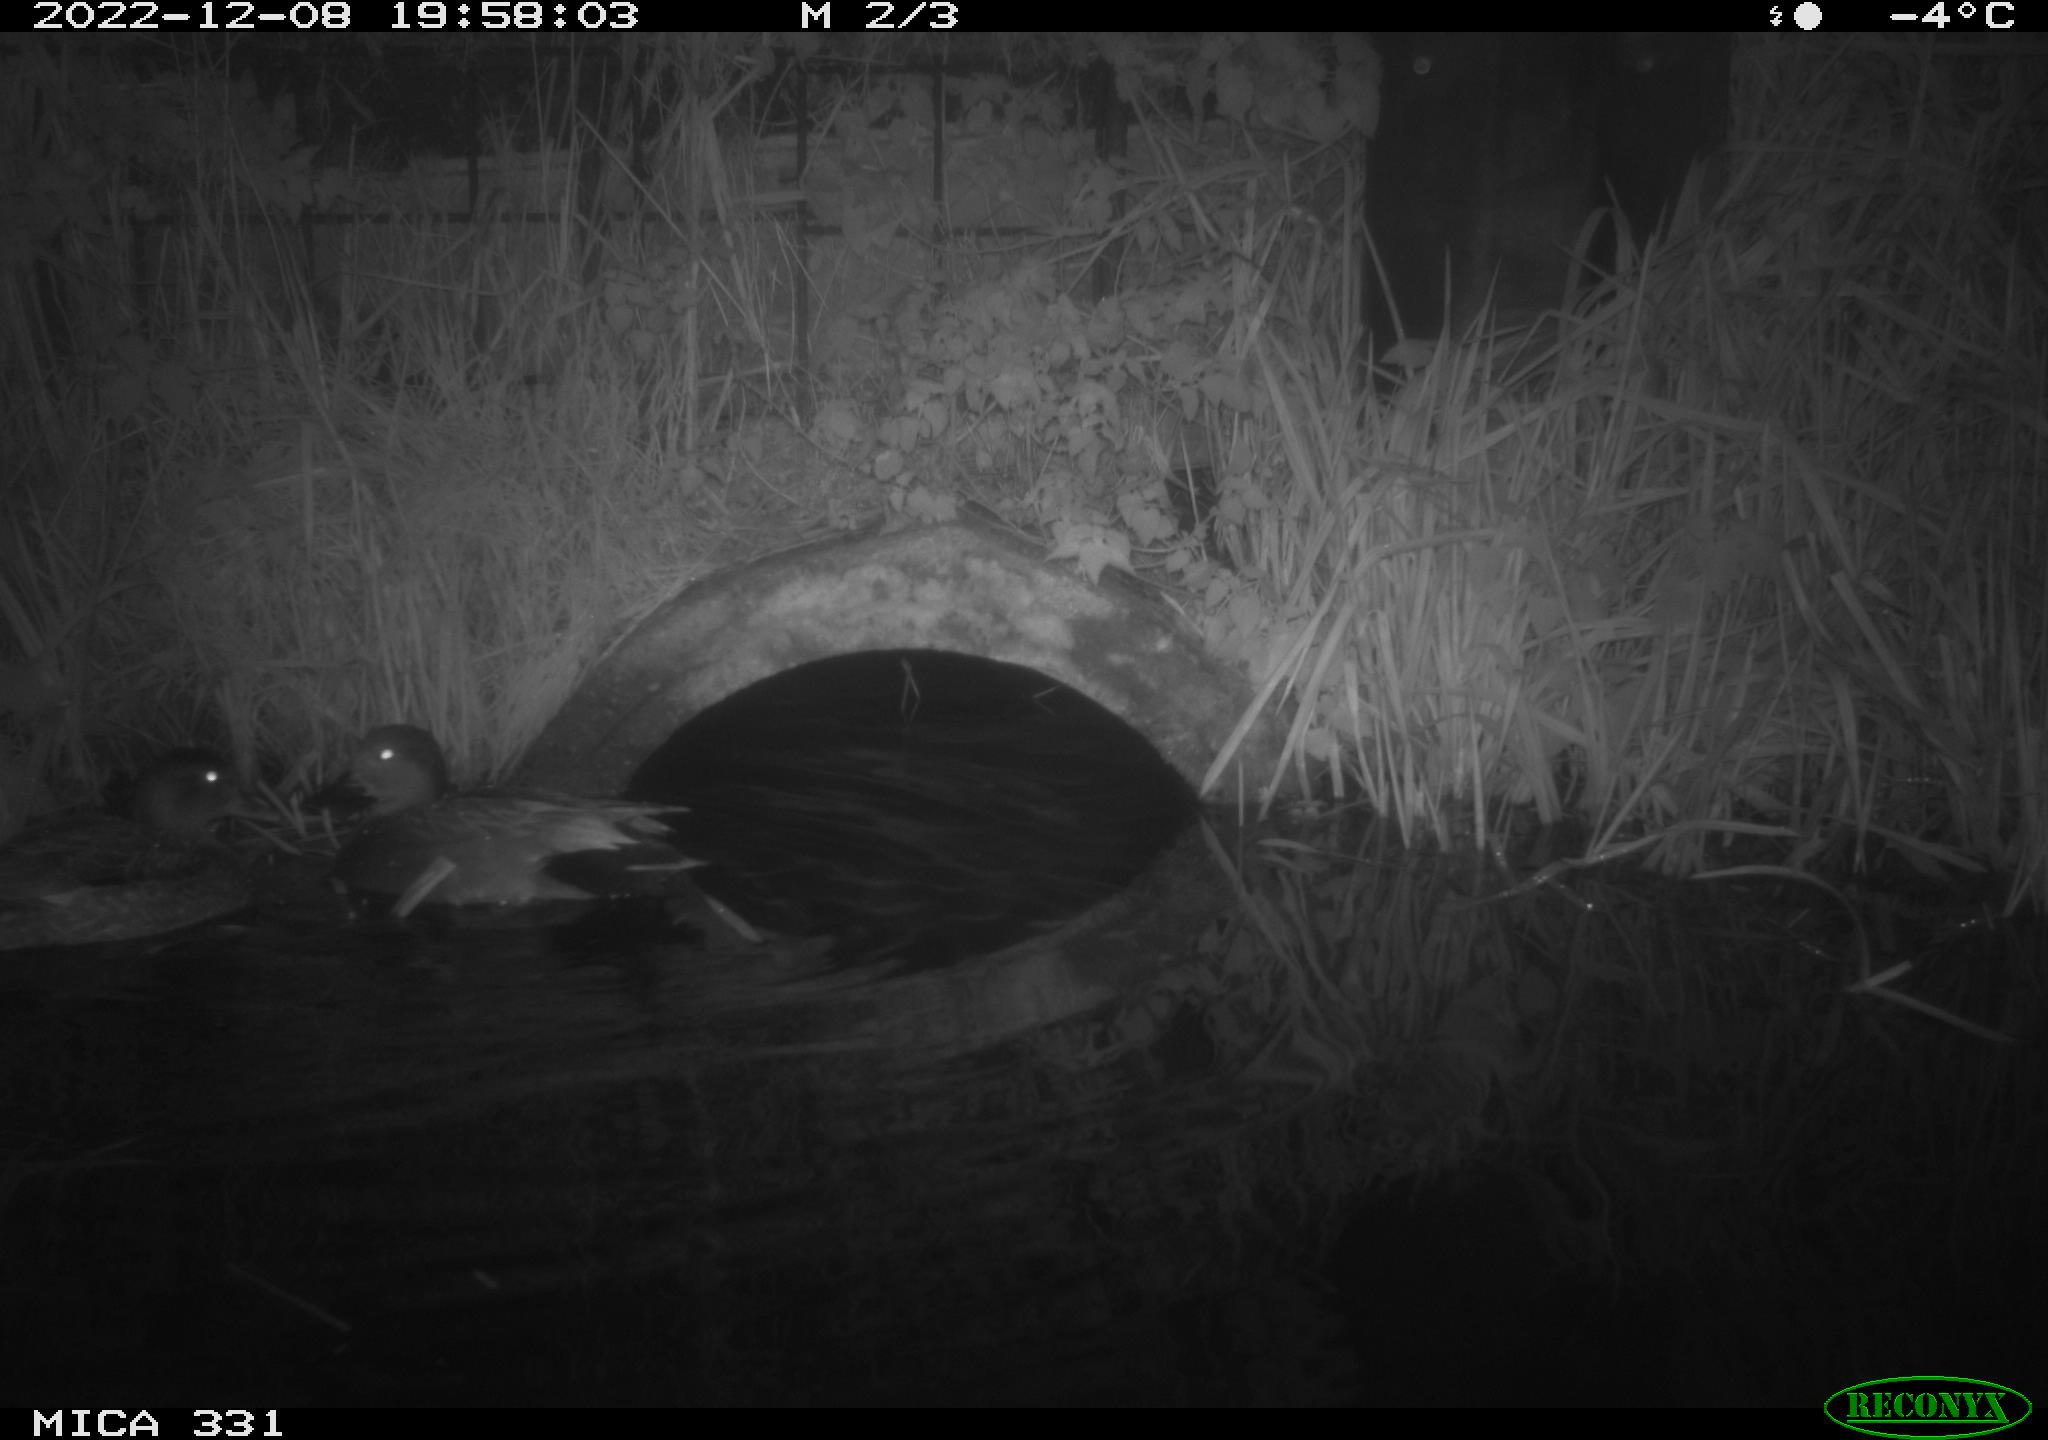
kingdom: Animalia
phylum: Chordata
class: Aves
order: Anseriformes
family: Anatidae
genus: Anas
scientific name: Anas
